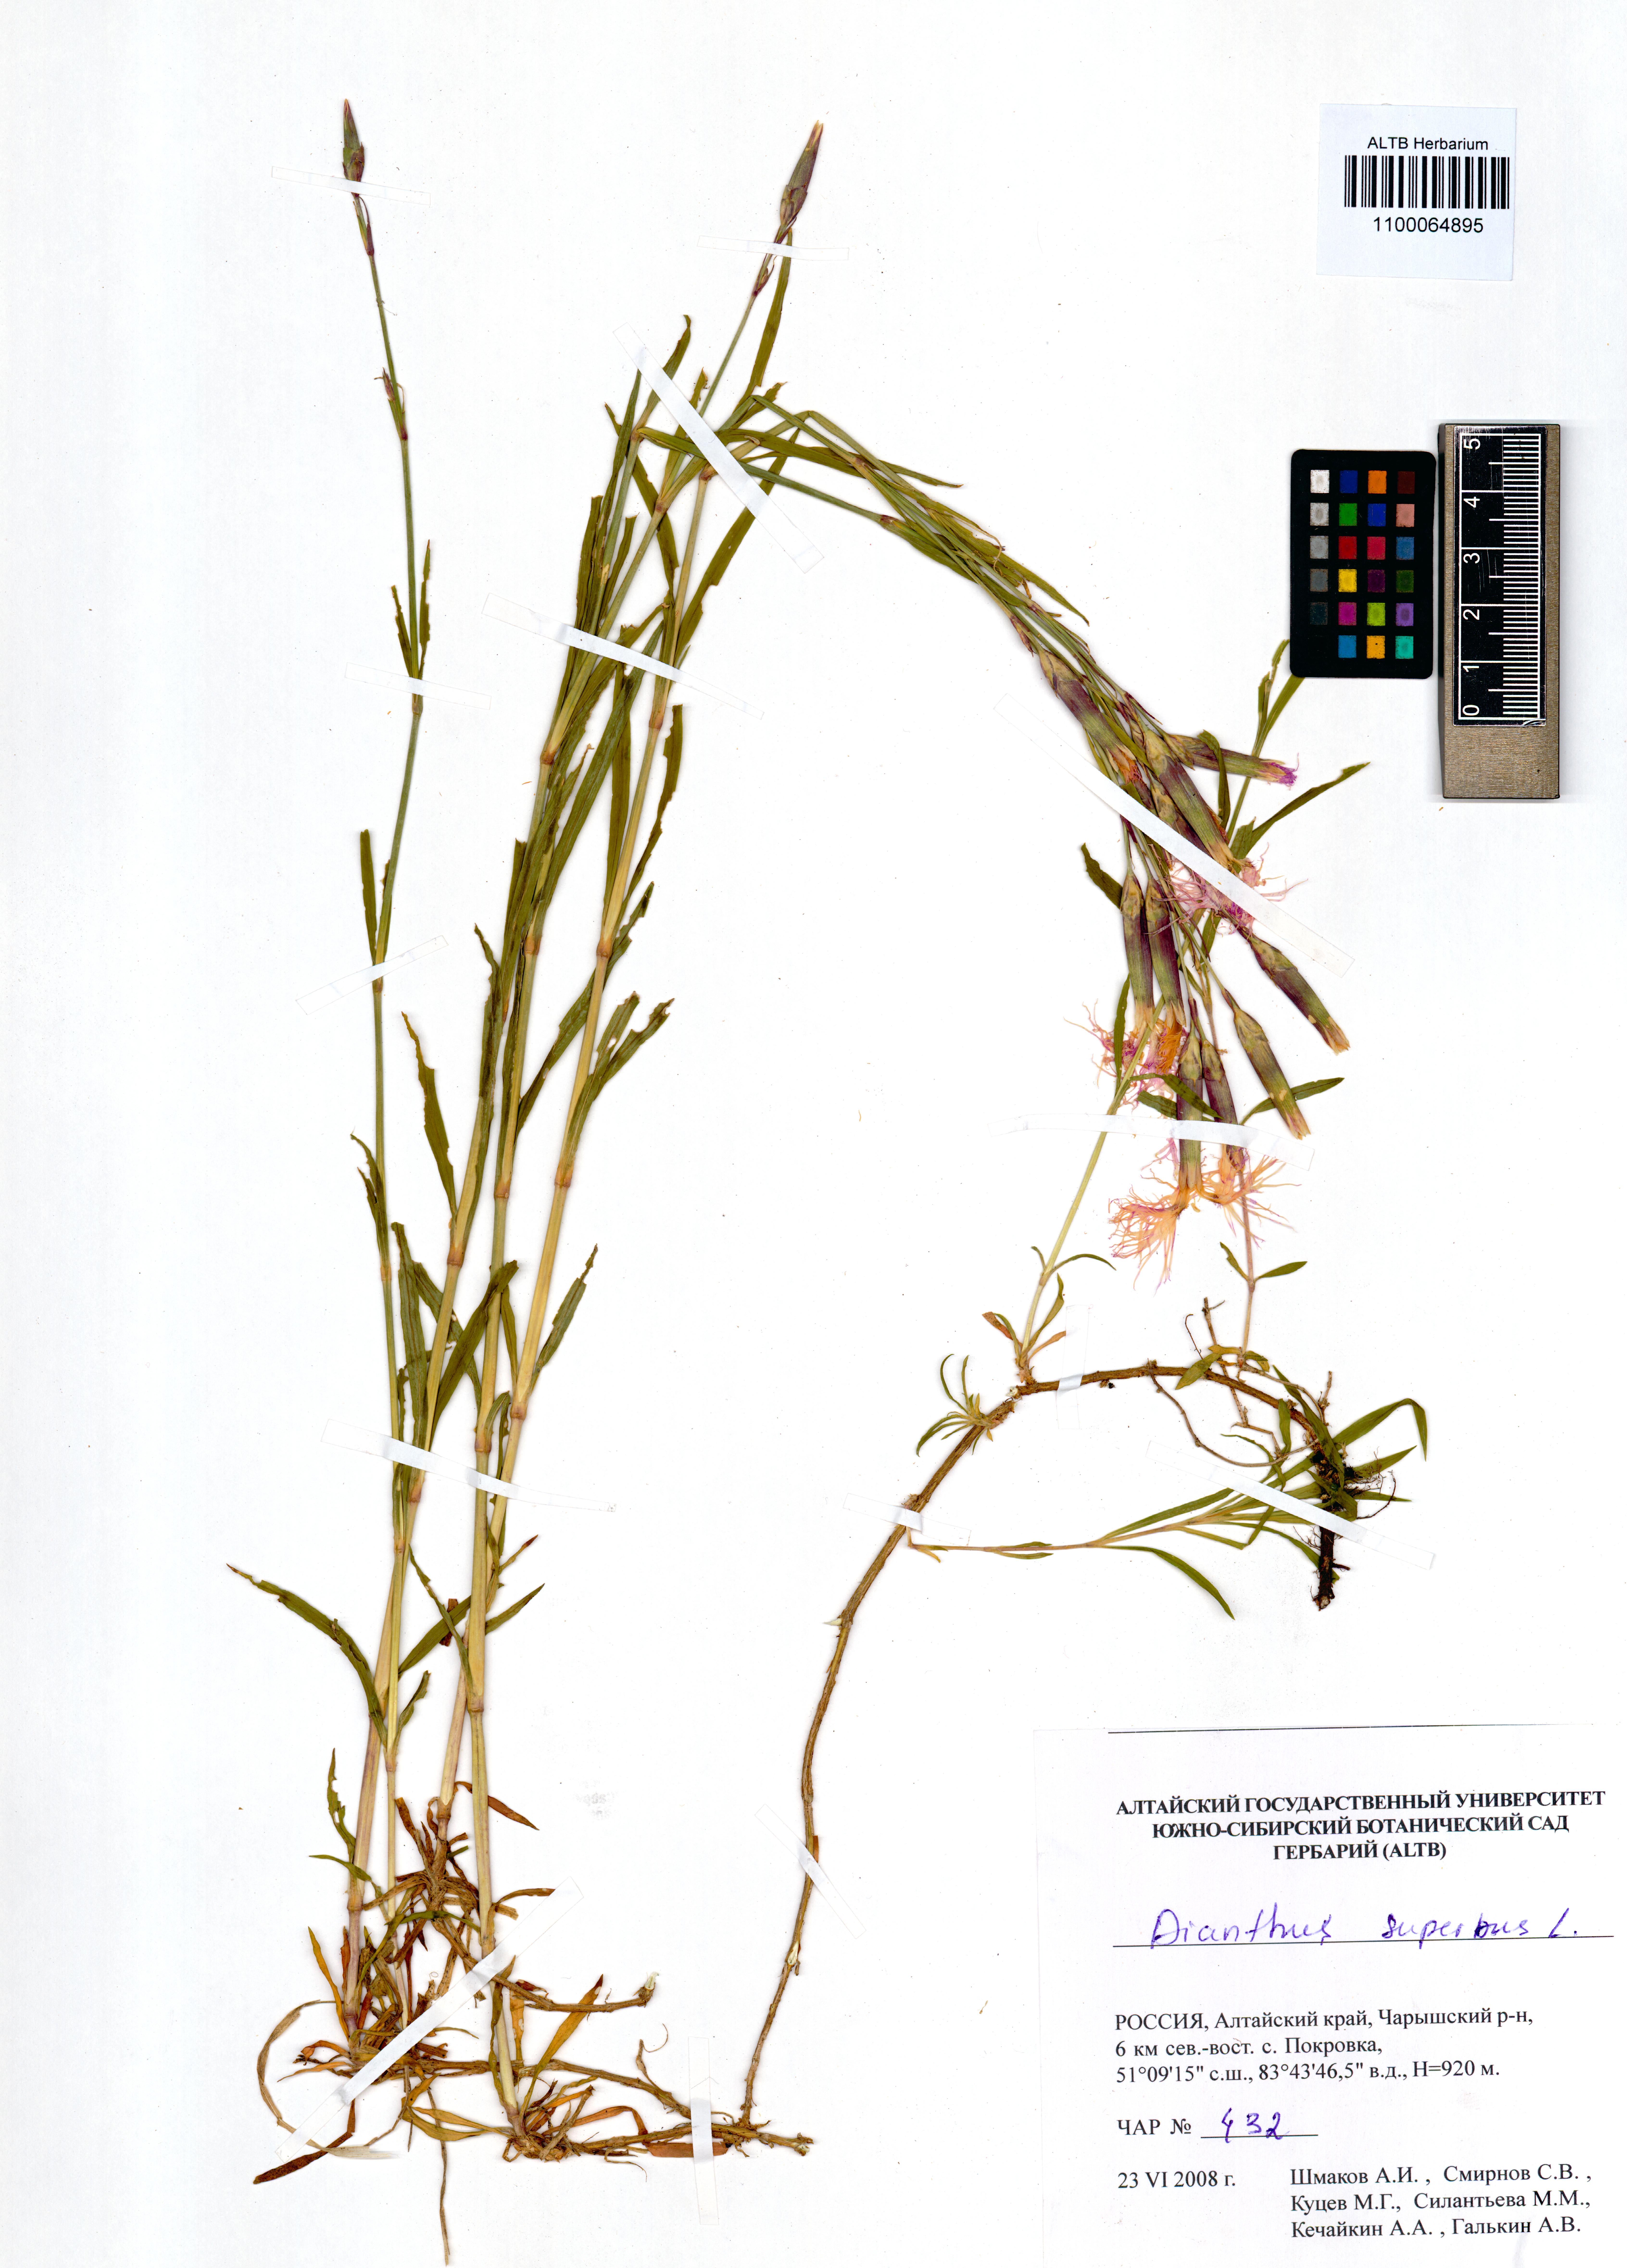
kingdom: Plantae
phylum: Tracheophyta
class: Magnoliopsida
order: Caryophyllales
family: Caryophyllaceae
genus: Dianthus
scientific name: Dianthus superbus
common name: Fringed pink
